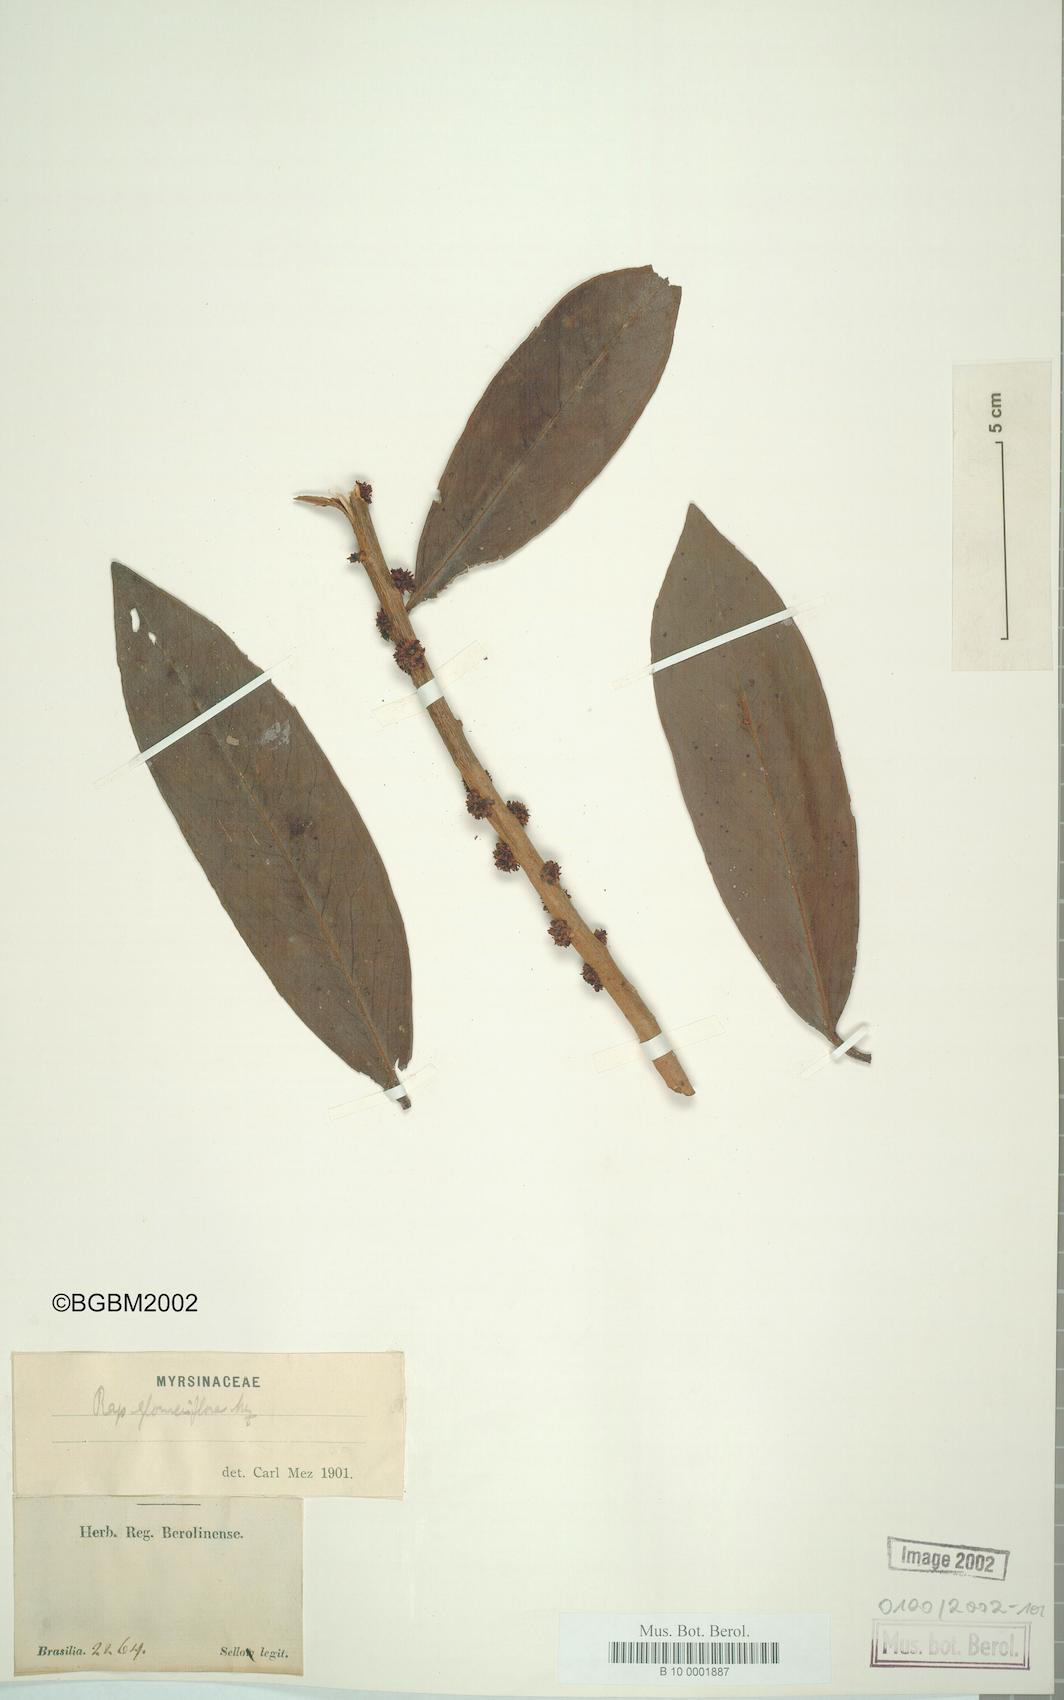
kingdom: Plantae
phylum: Tracheophyta
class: Magnoliopsida
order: Ericales
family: Primulaceae
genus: Myrsine
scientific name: Myrsine umbellata
